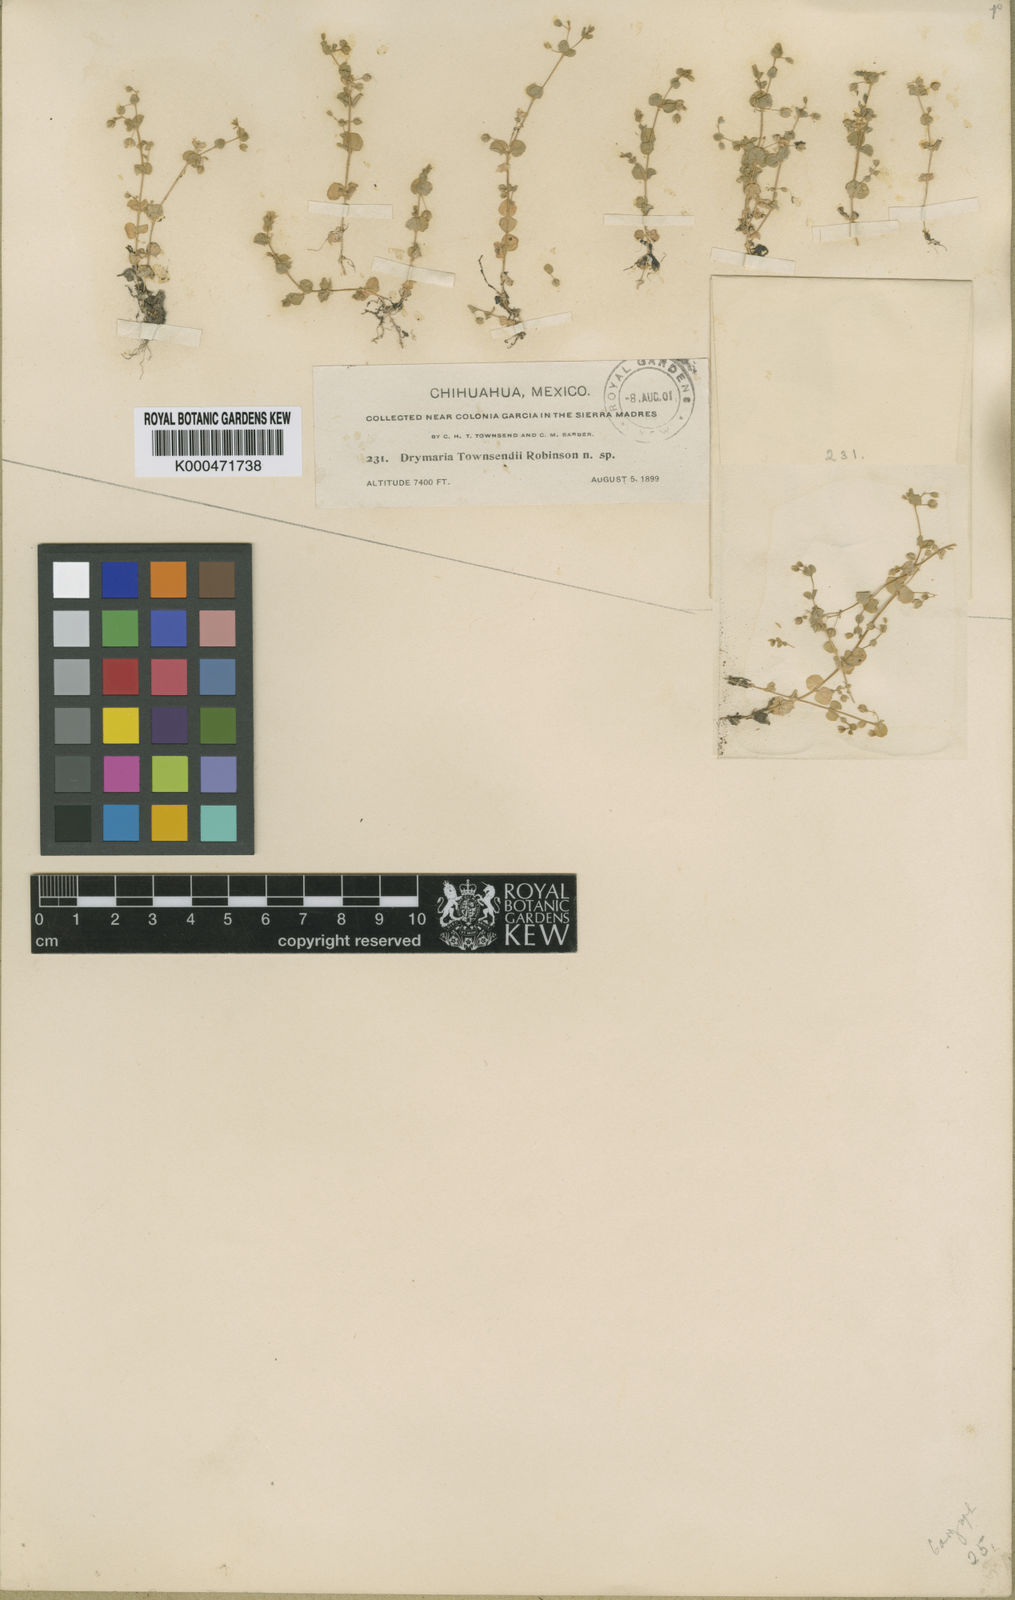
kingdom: Plantae
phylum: Tracheophyta
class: Magnoliopsida
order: Caryophyllales
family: Caryophyllaceae
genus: Drymaria
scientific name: Drymaria villosa
